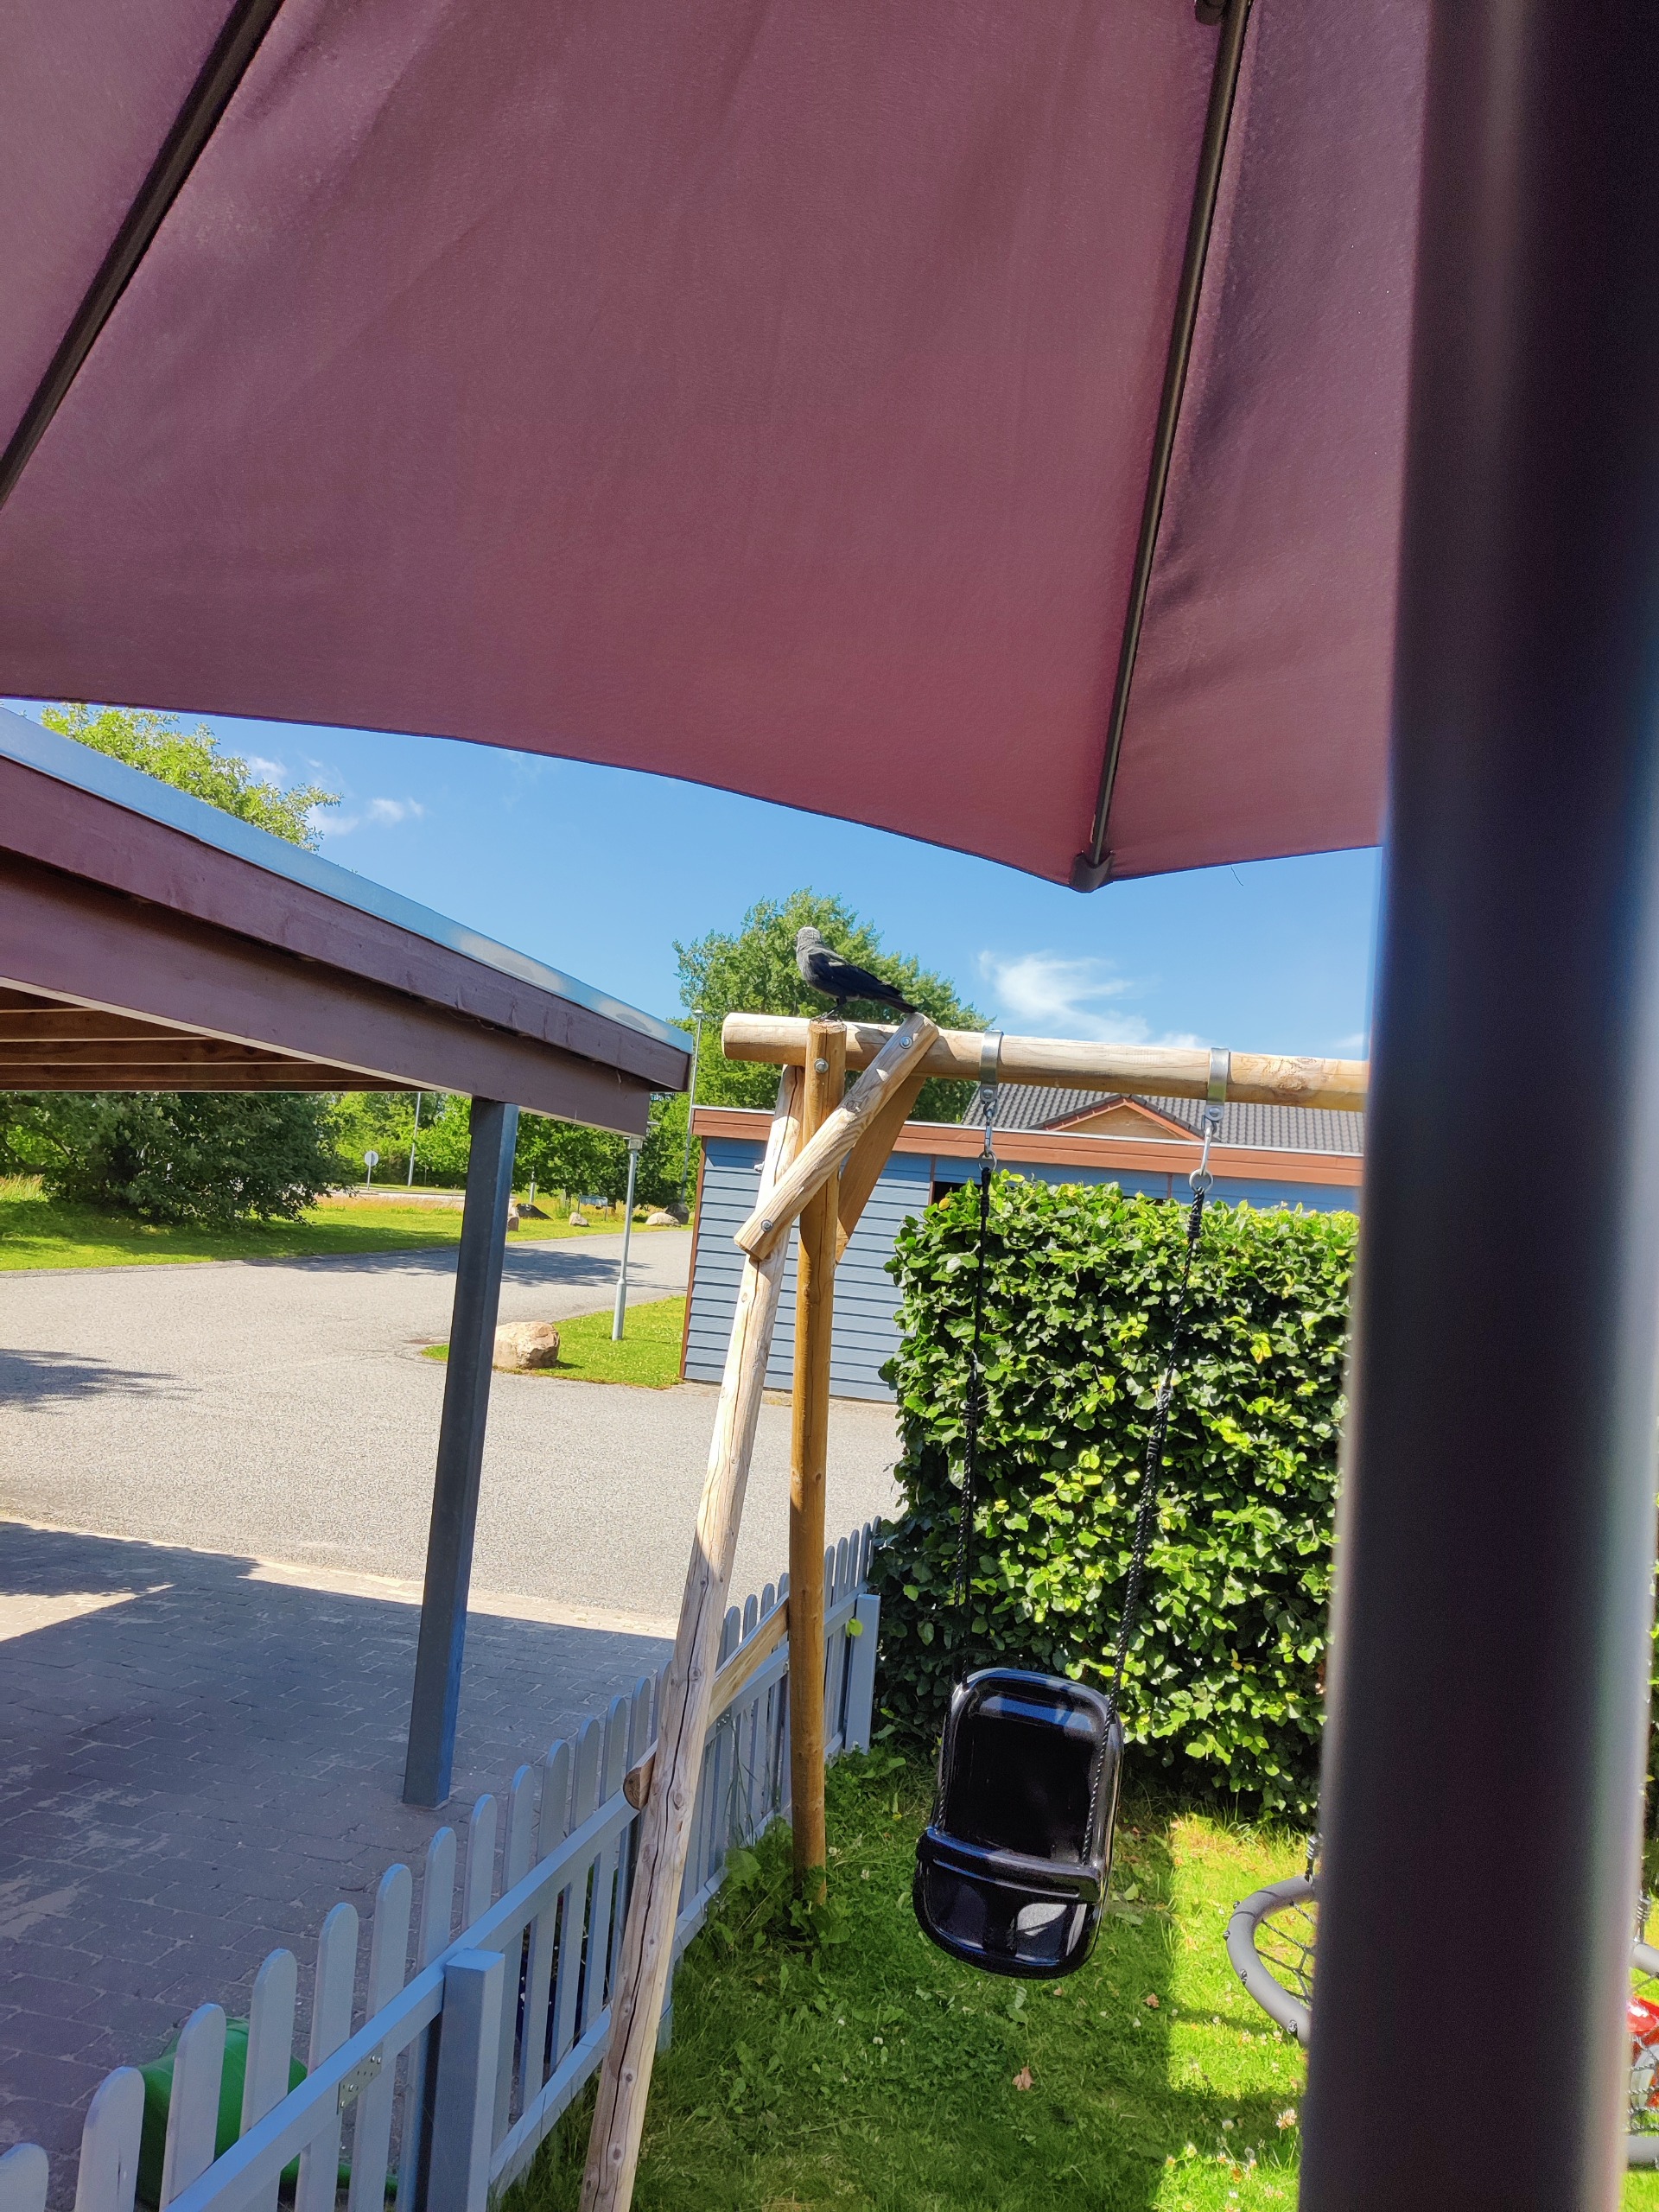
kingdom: Animalia
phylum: Chordata
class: Aves
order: Passeriformes
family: Corvidae
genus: Coloeus
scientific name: Coloeus monedula
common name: Allike
